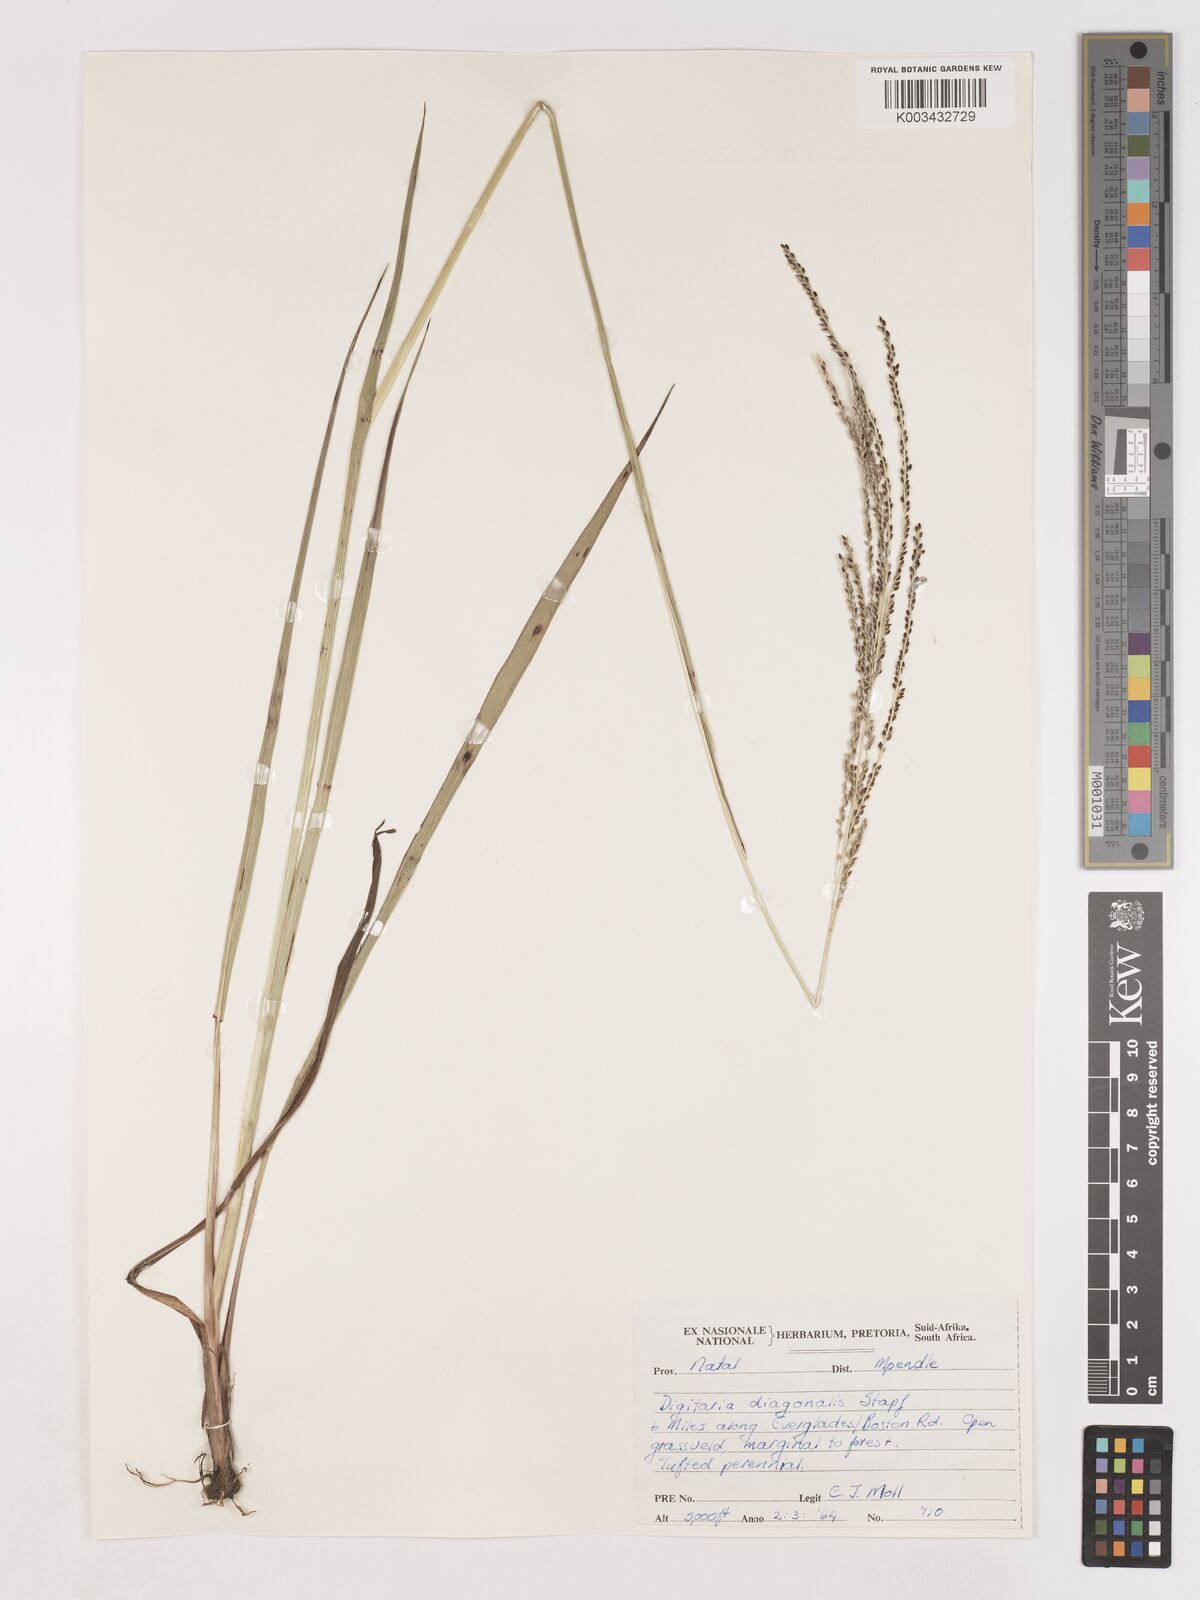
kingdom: Plantae
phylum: Tracheophyta
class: Liliopsida
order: Poales
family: Poaceae
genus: Digitaria
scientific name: Digitaria diagonalis
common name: Brown-seed finger grass
